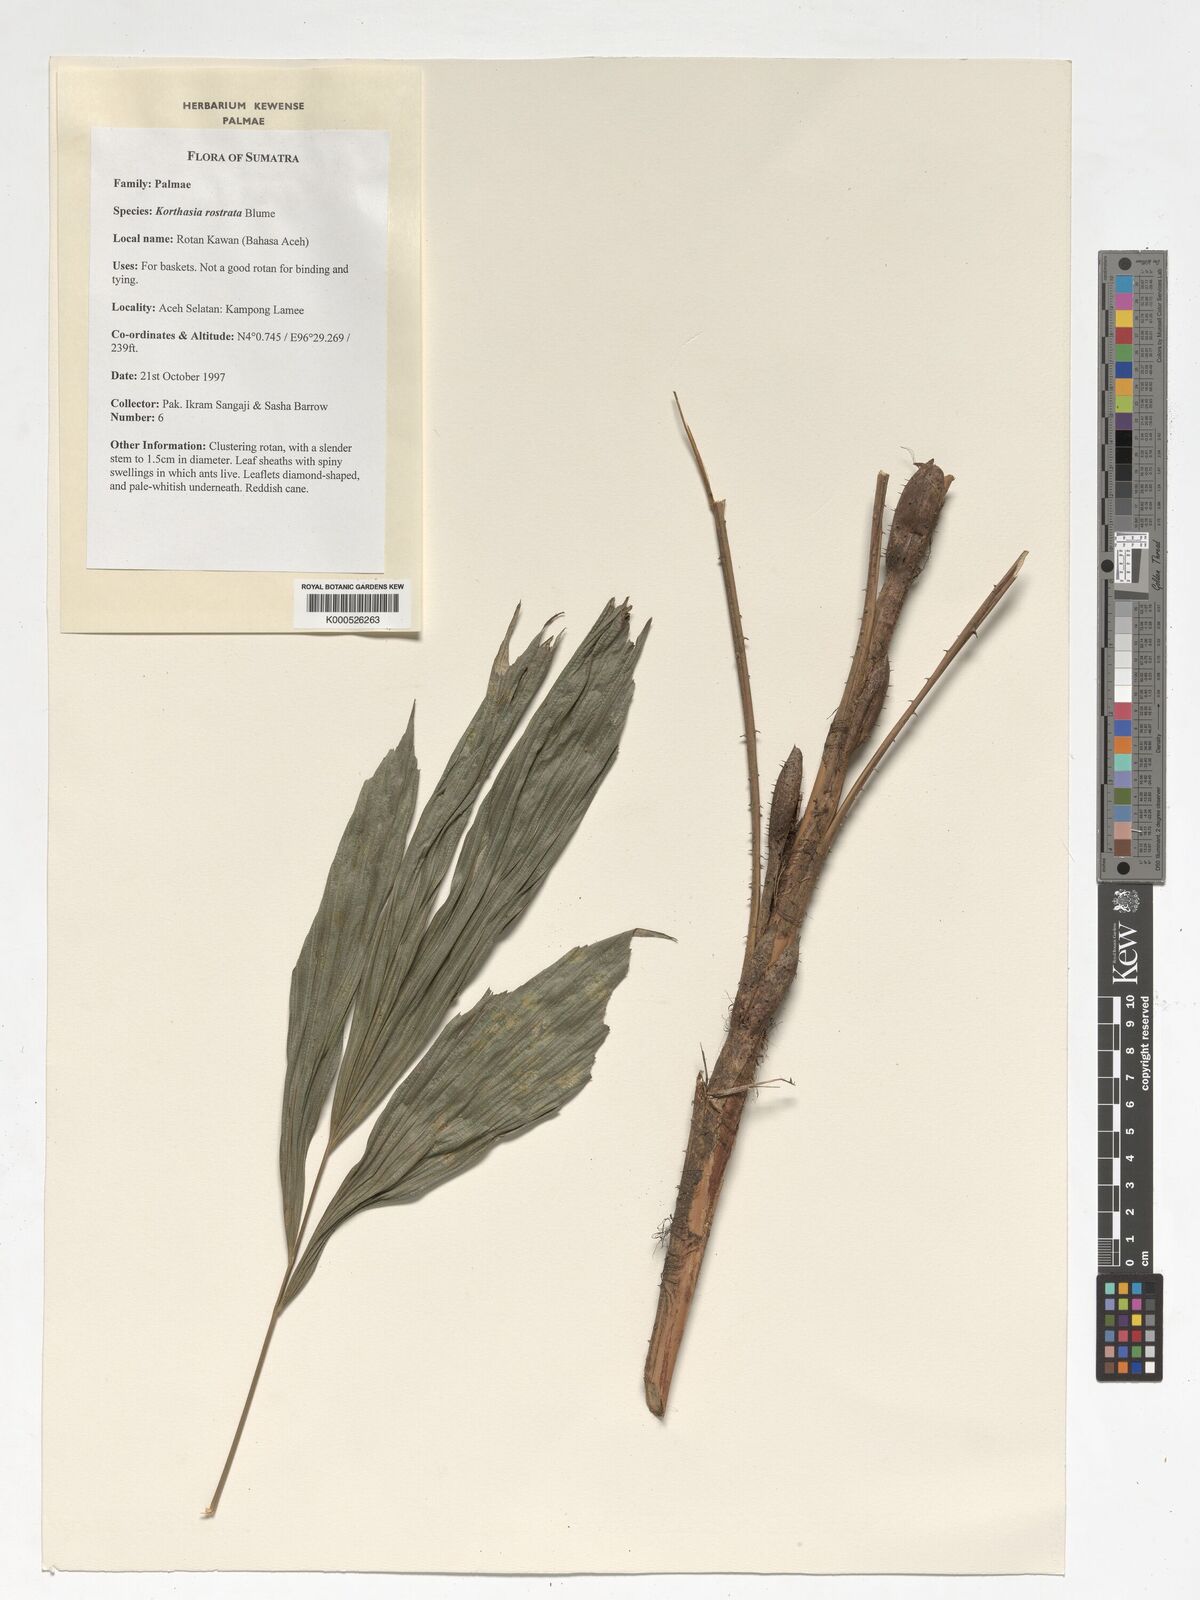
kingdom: Plantae
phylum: Tracheophyta
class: Liliopsida
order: Arecales
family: Arecaceae
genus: Korthalsia
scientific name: Korthalsia rostrata
